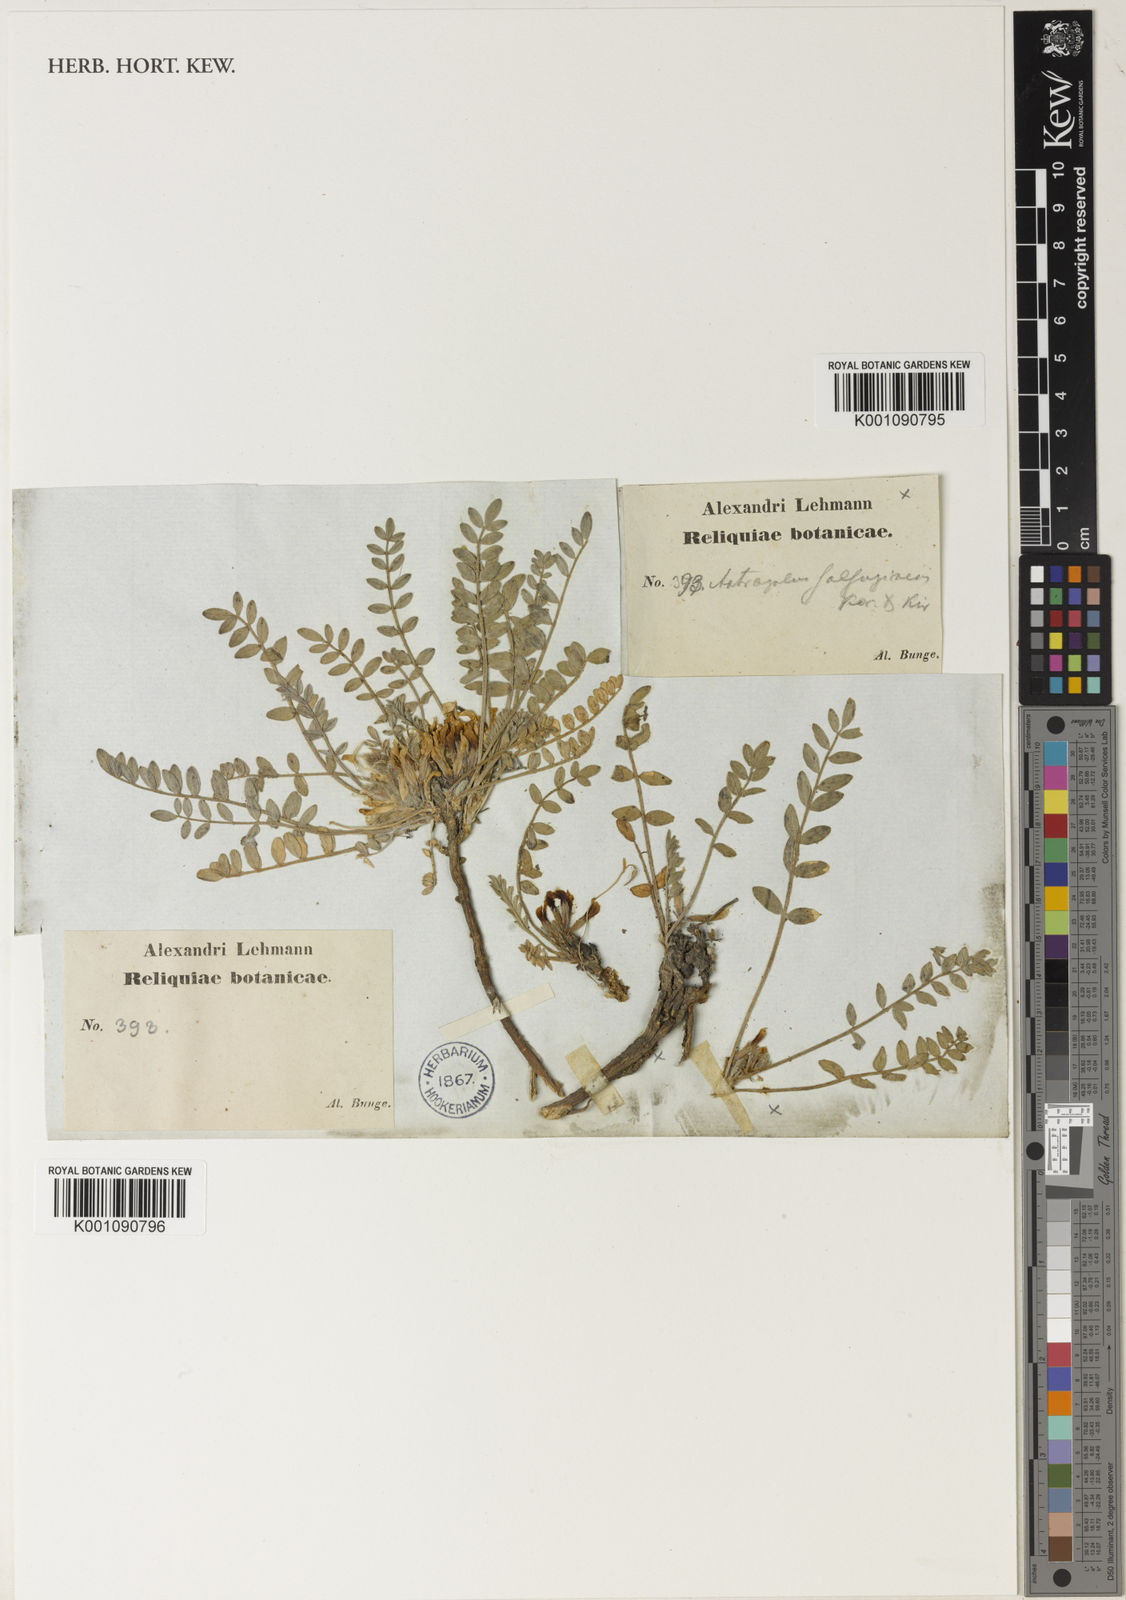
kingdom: Plantae
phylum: Tracheophyta
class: Magnoliopsida
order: Fabales
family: Fabaceae
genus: Astragalus
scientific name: Astragalus
